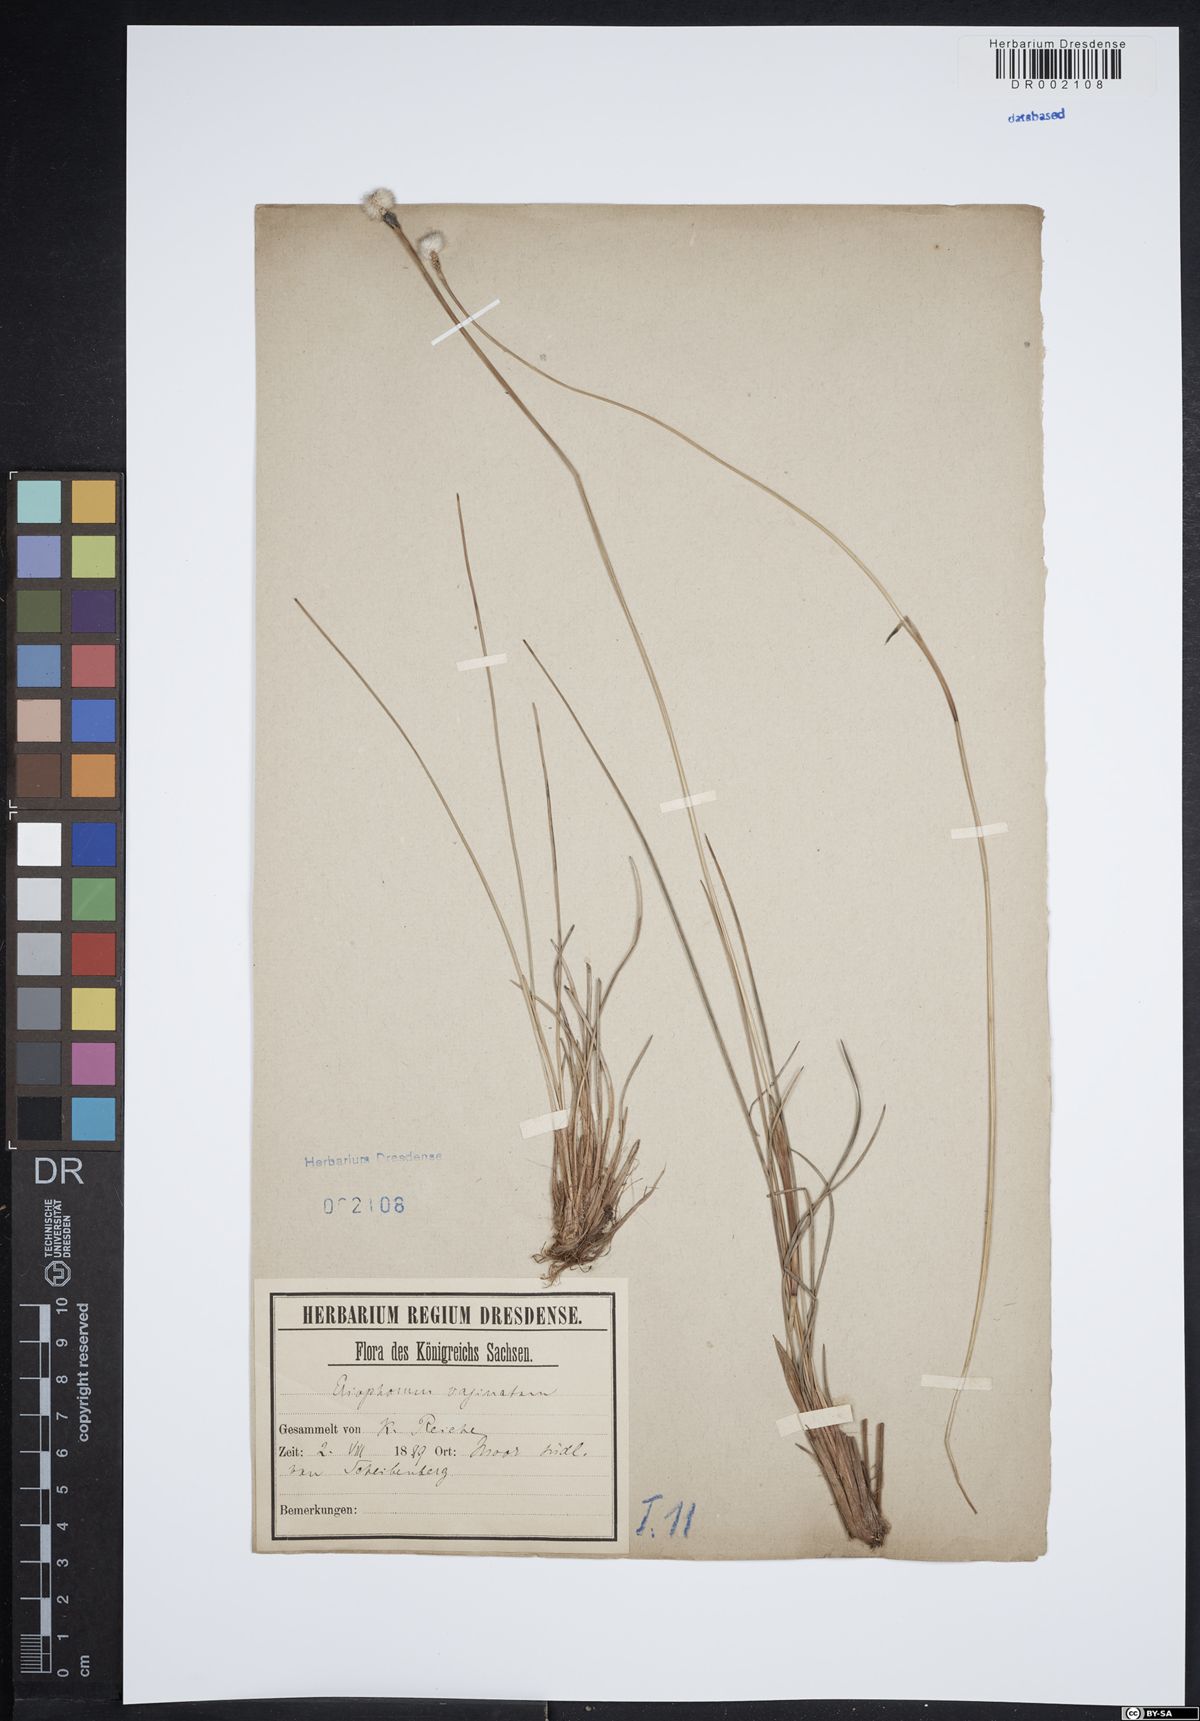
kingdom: Plantae
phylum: Tracheophyta
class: Liliopsida
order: Poales
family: Cyperaceae
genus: Eriophorum
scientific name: Eriophorum vaginatum
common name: Hare's-tail cottongrass
